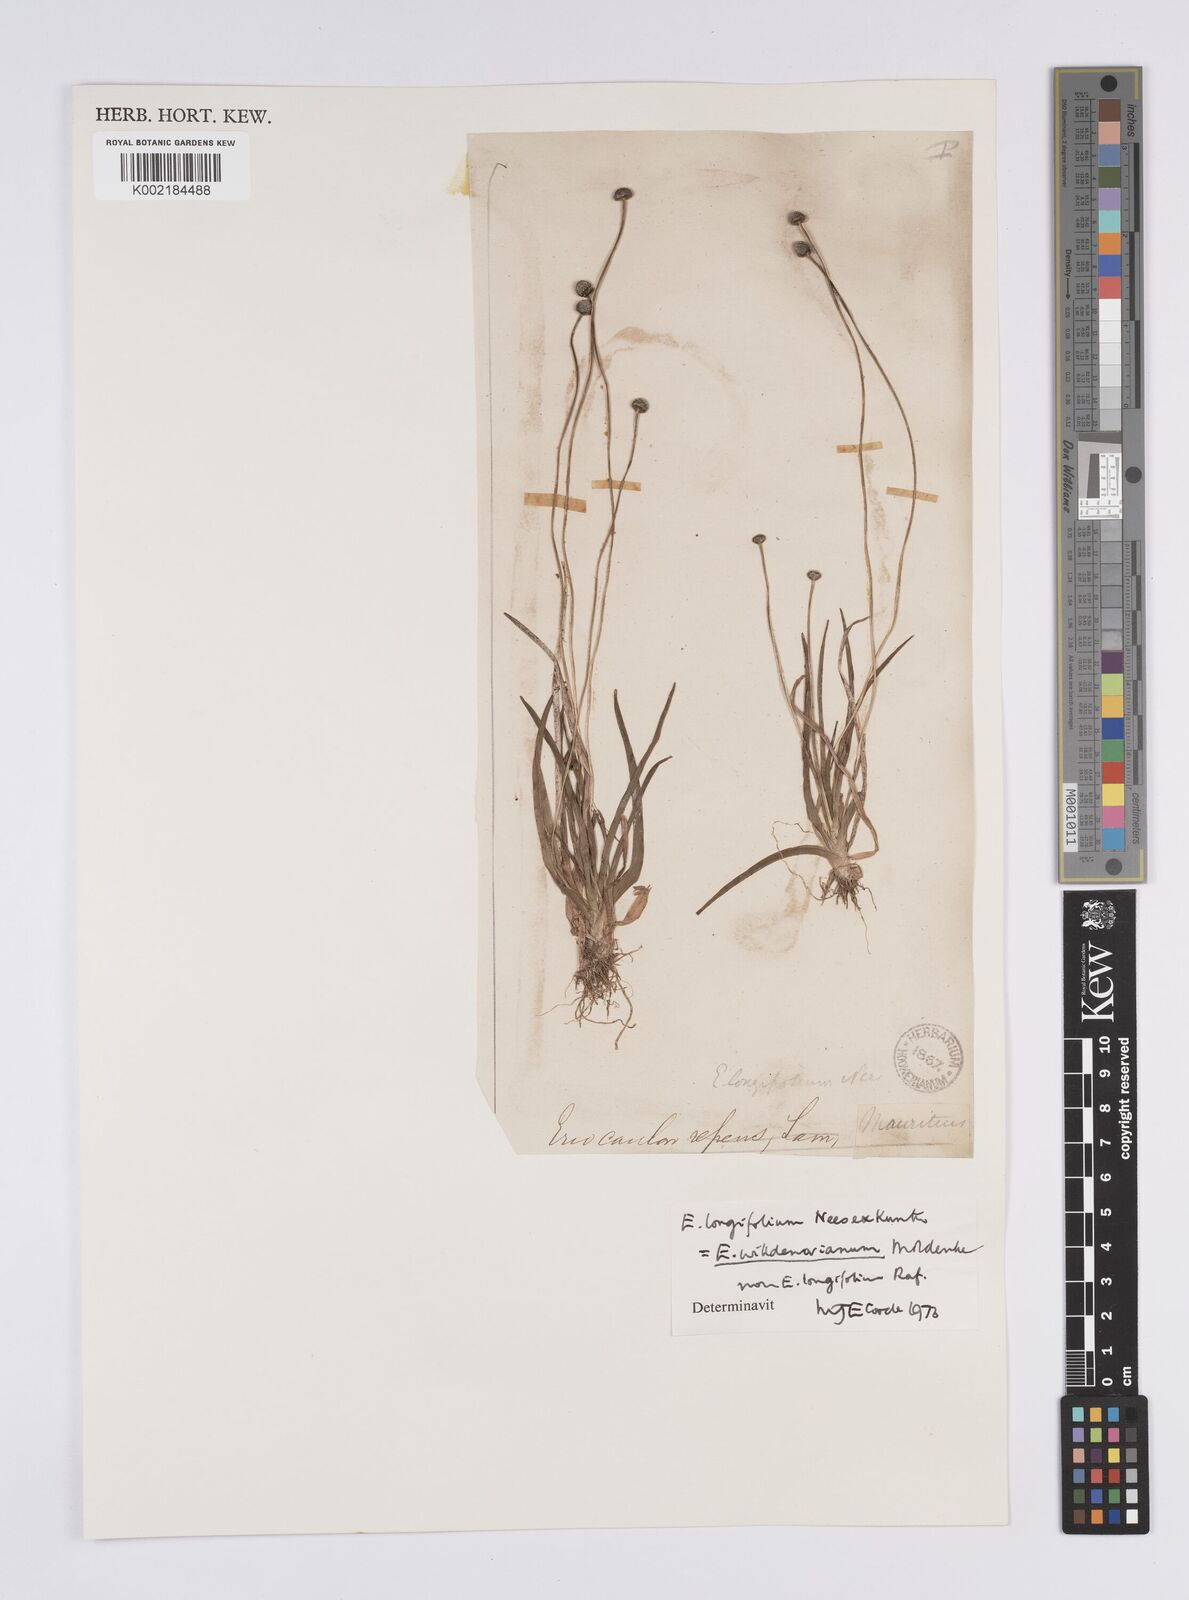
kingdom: Plantae
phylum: Tracheophyta
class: Liliopsida
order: Poales
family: Eriocaulaceae
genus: Eriocaulon
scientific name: Eriocaulon willdenovianum
